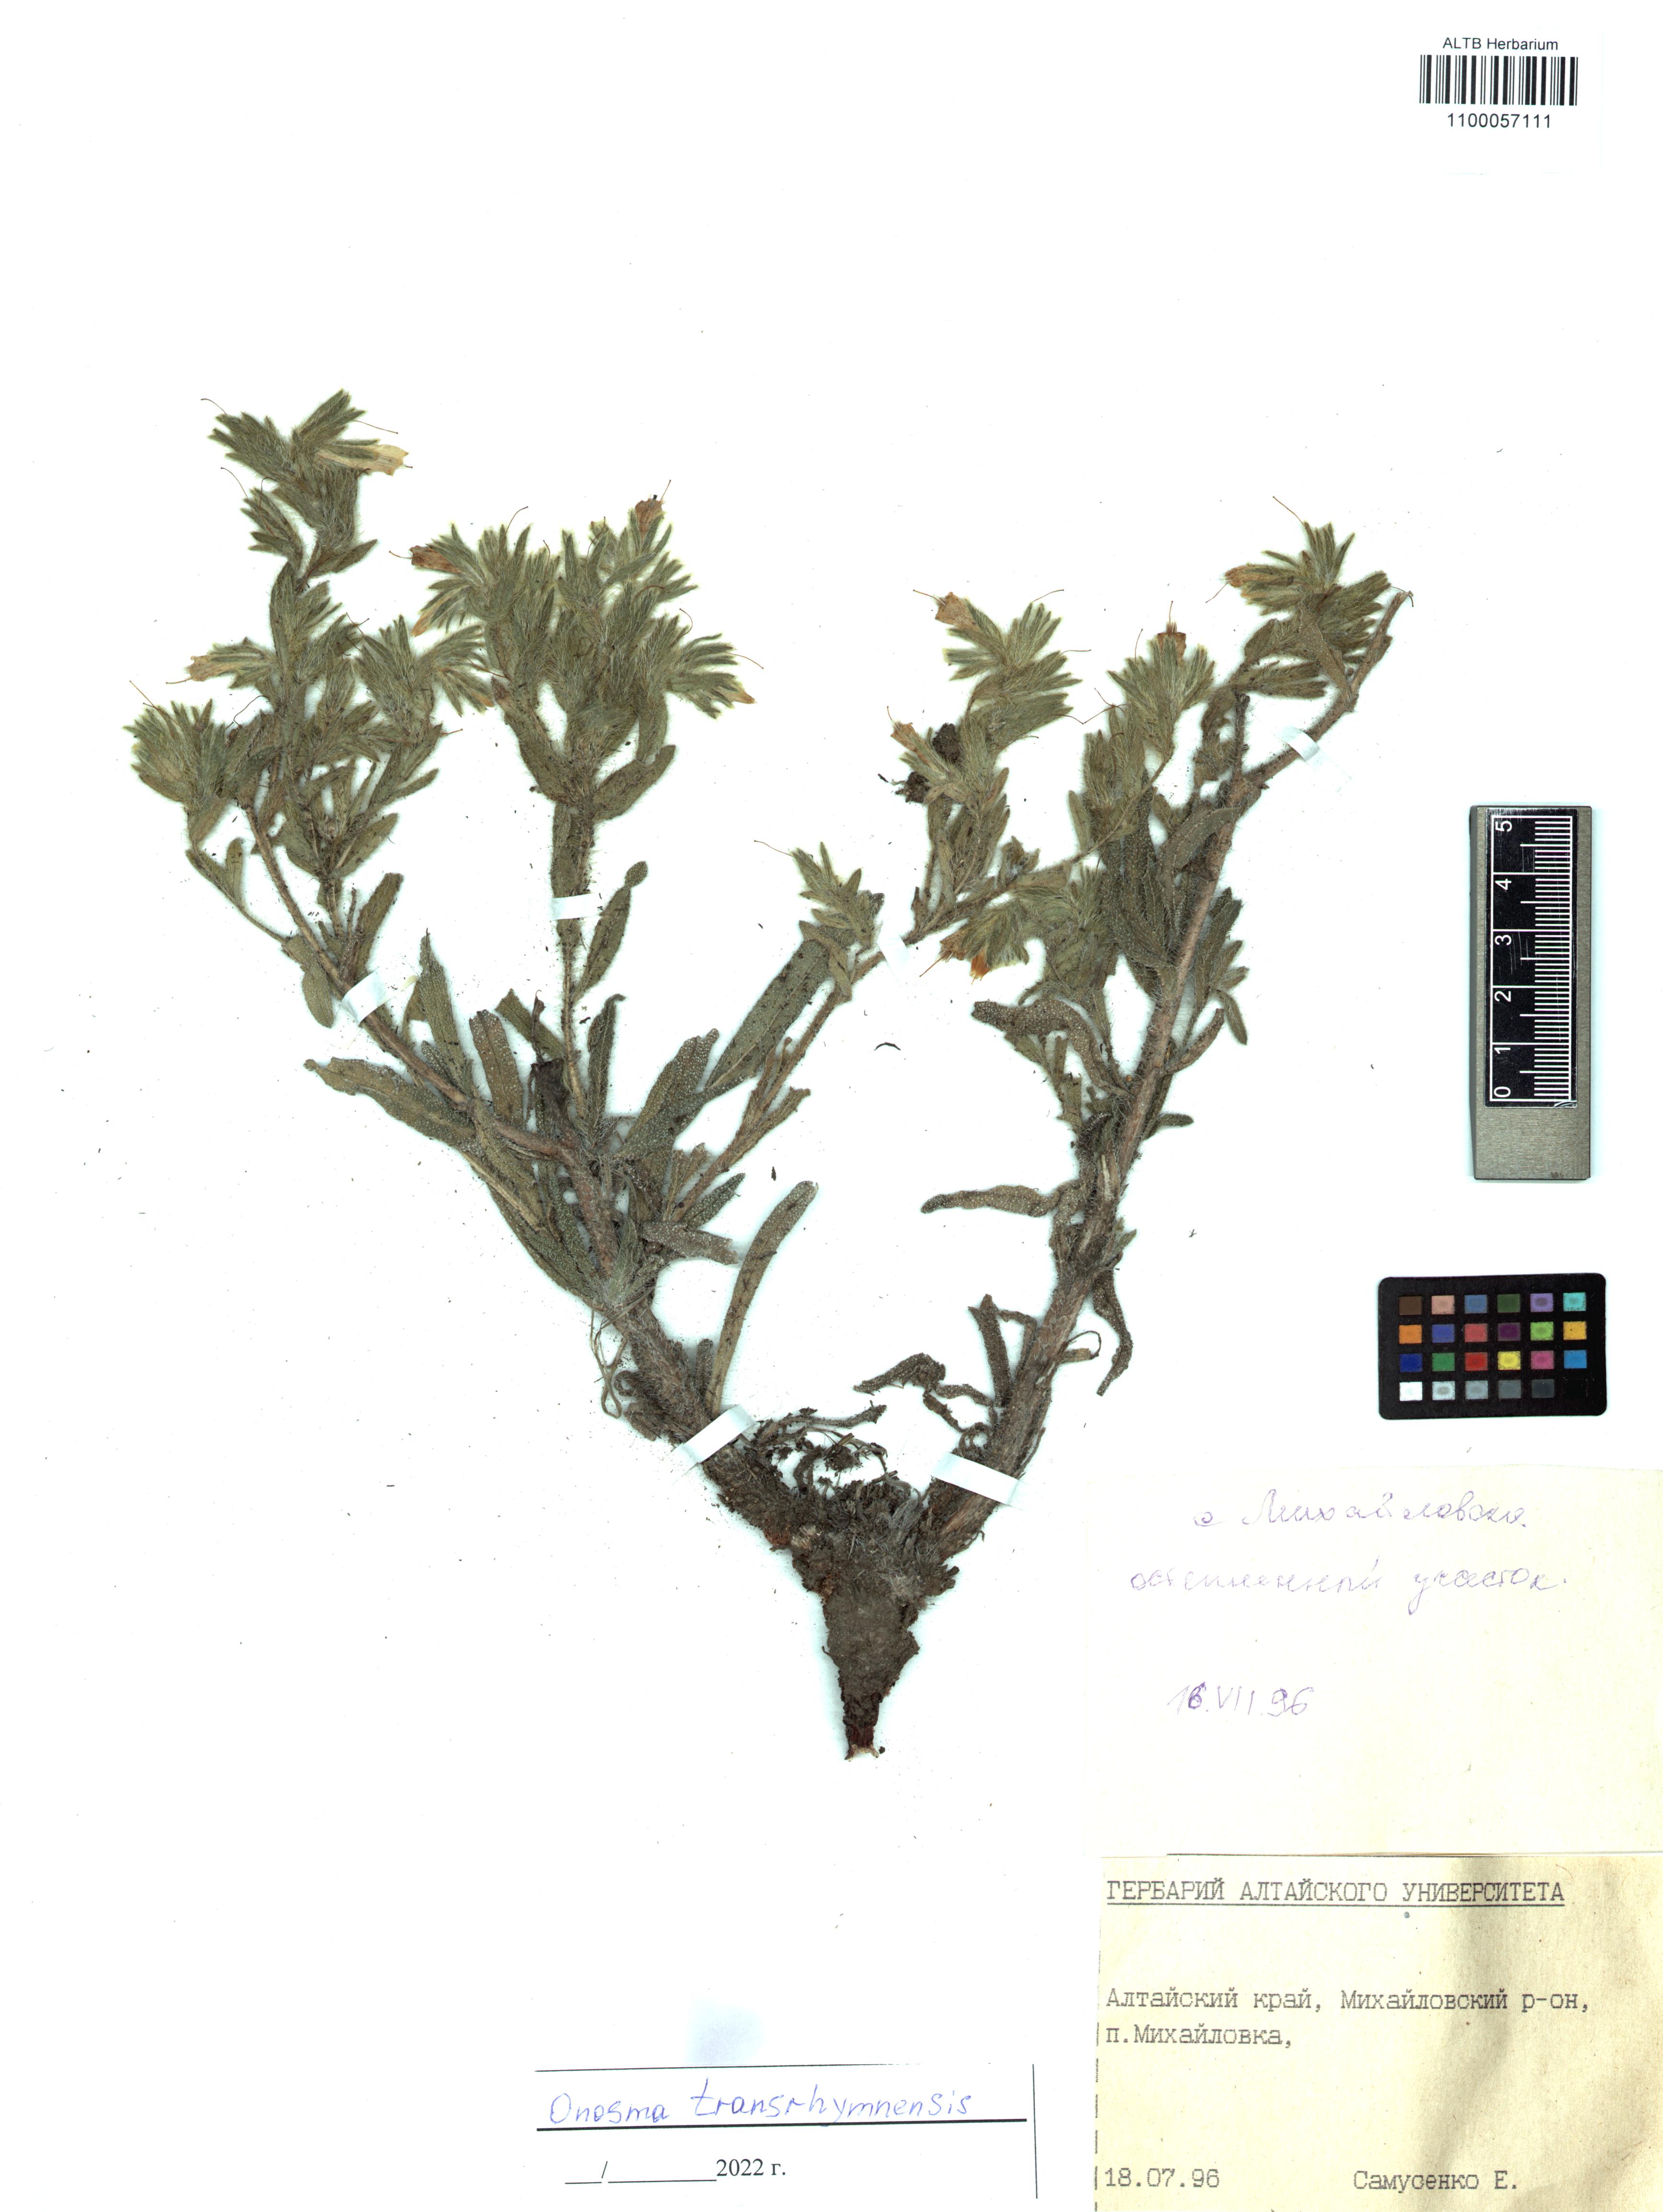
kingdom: Plantae
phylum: Tracheophyta
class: Magnoliopsida
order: Boraginales
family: Boraginaceae
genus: Onosma
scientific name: Onosma transrhymnensis
